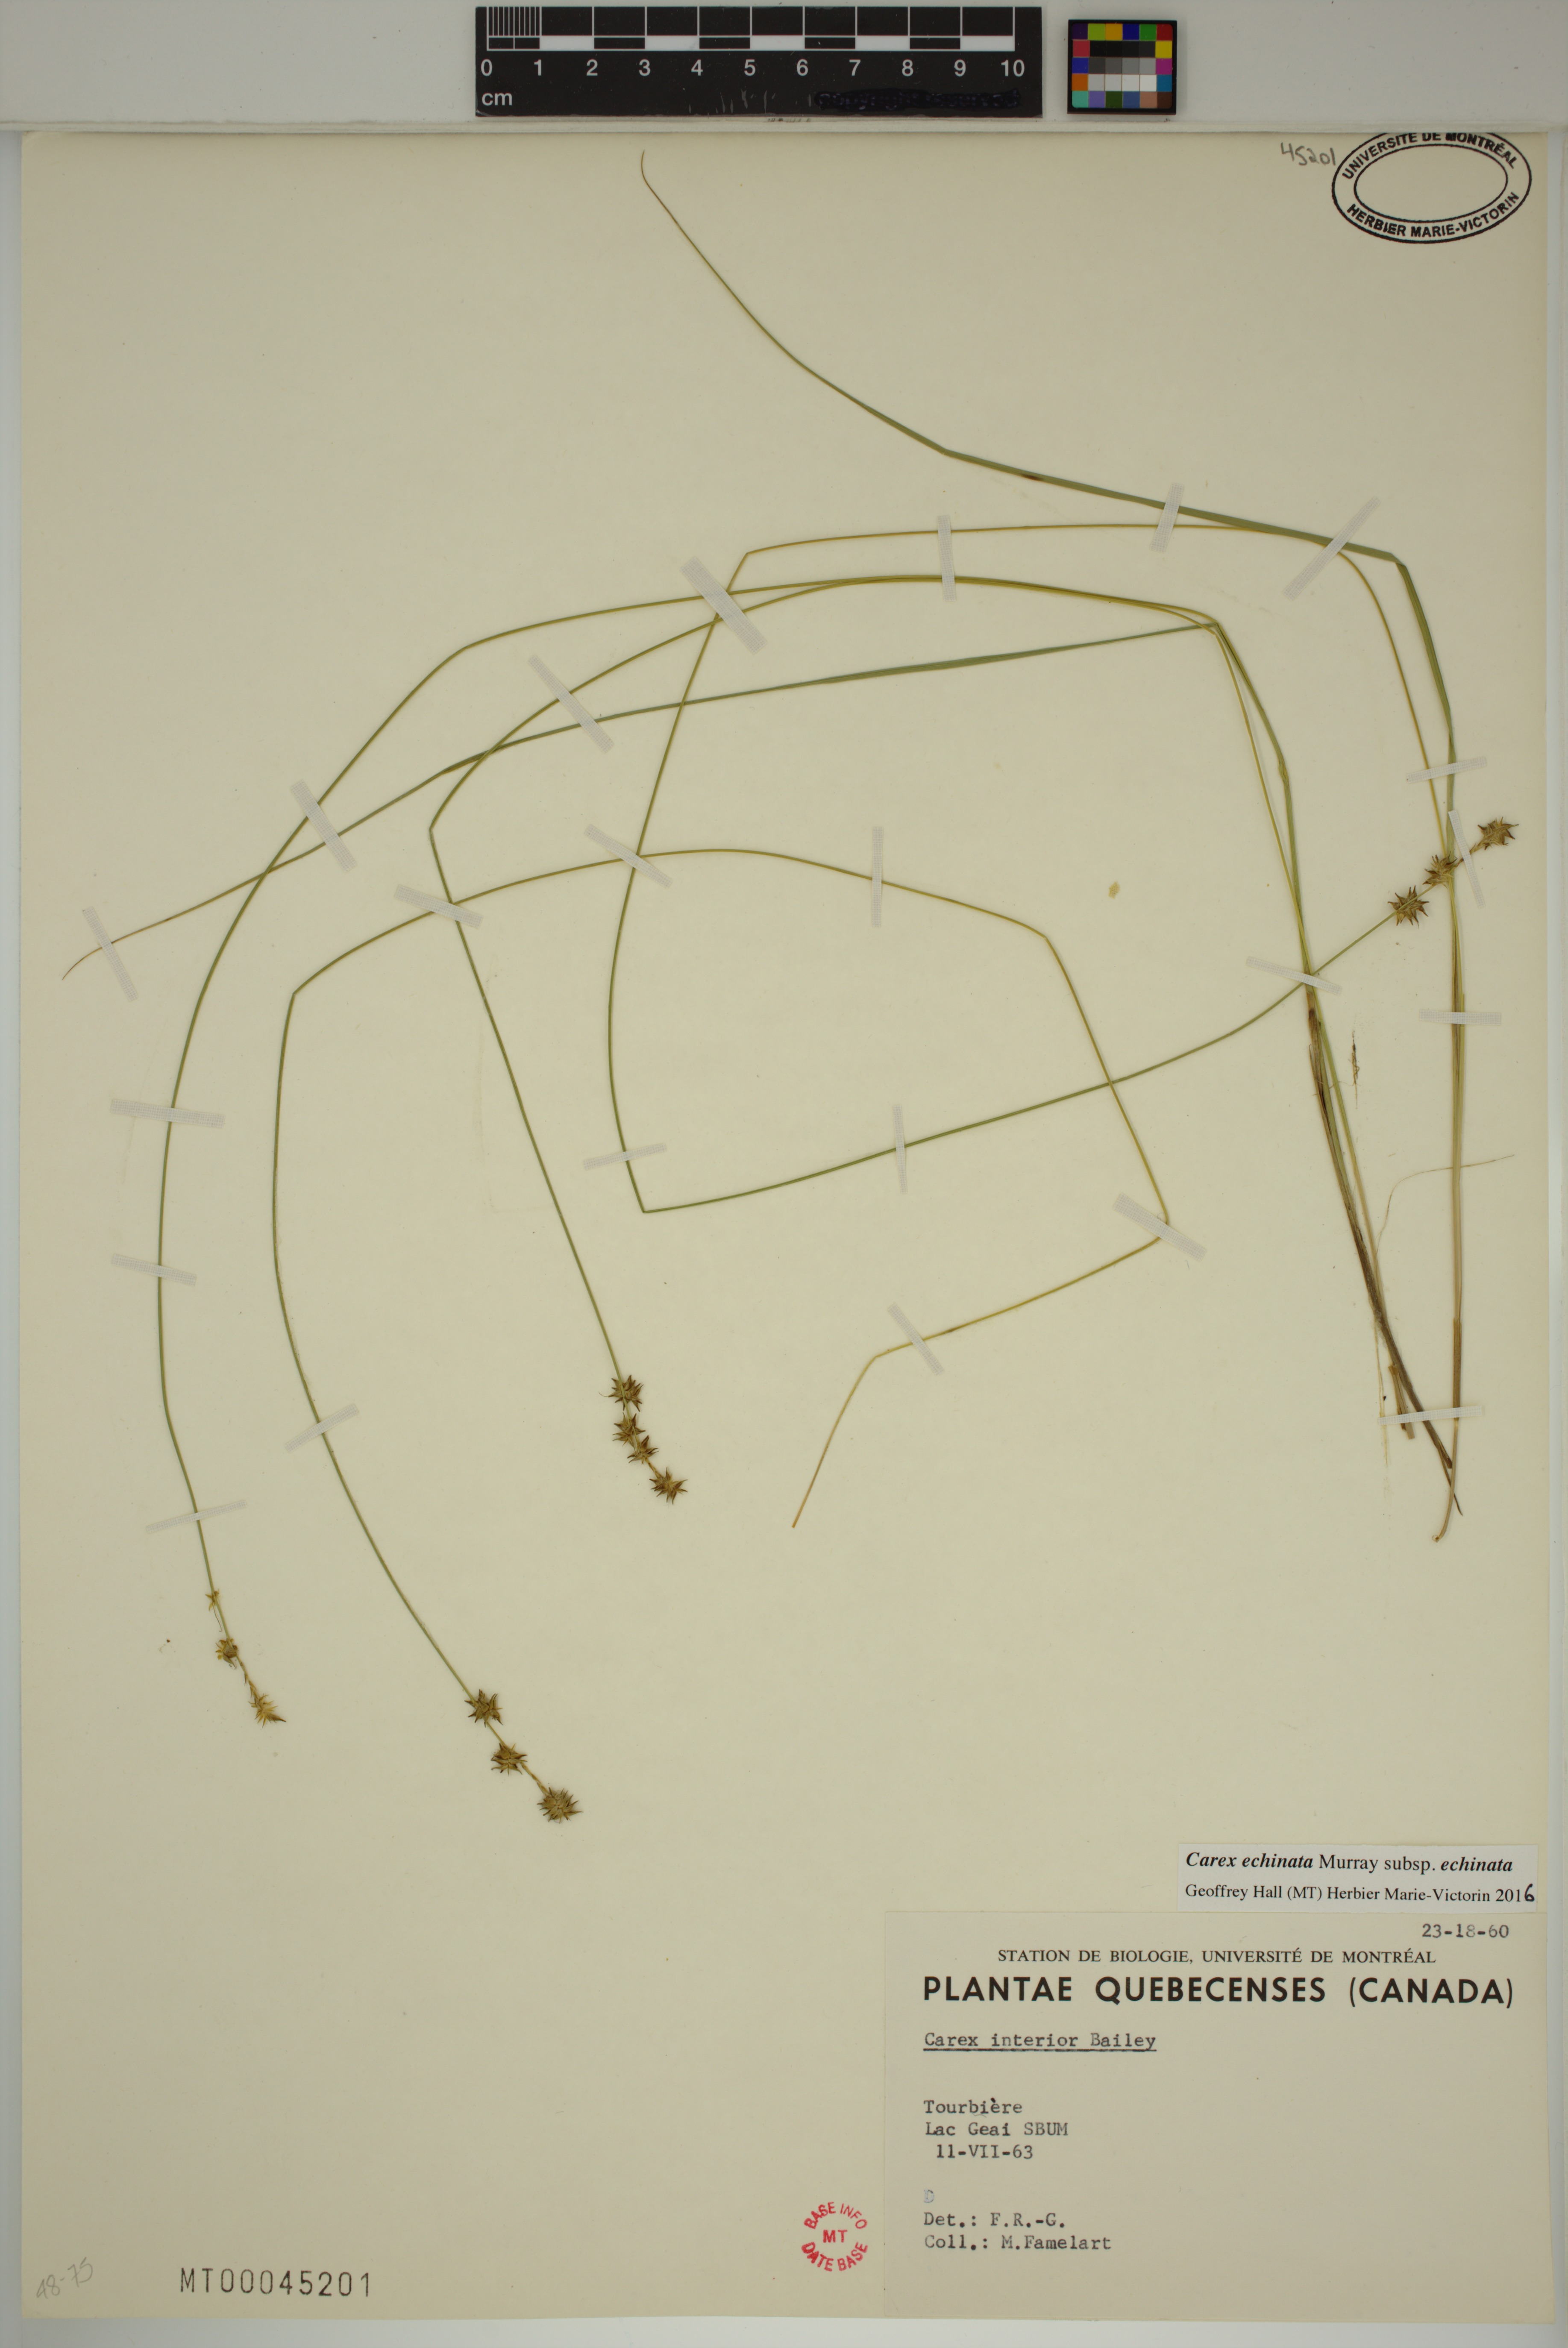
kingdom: Plantae
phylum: Tracheophyta
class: Liliopsida
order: Poales
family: Cyperaceae
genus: Carex
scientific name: Carex echinata
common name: Star sedge
